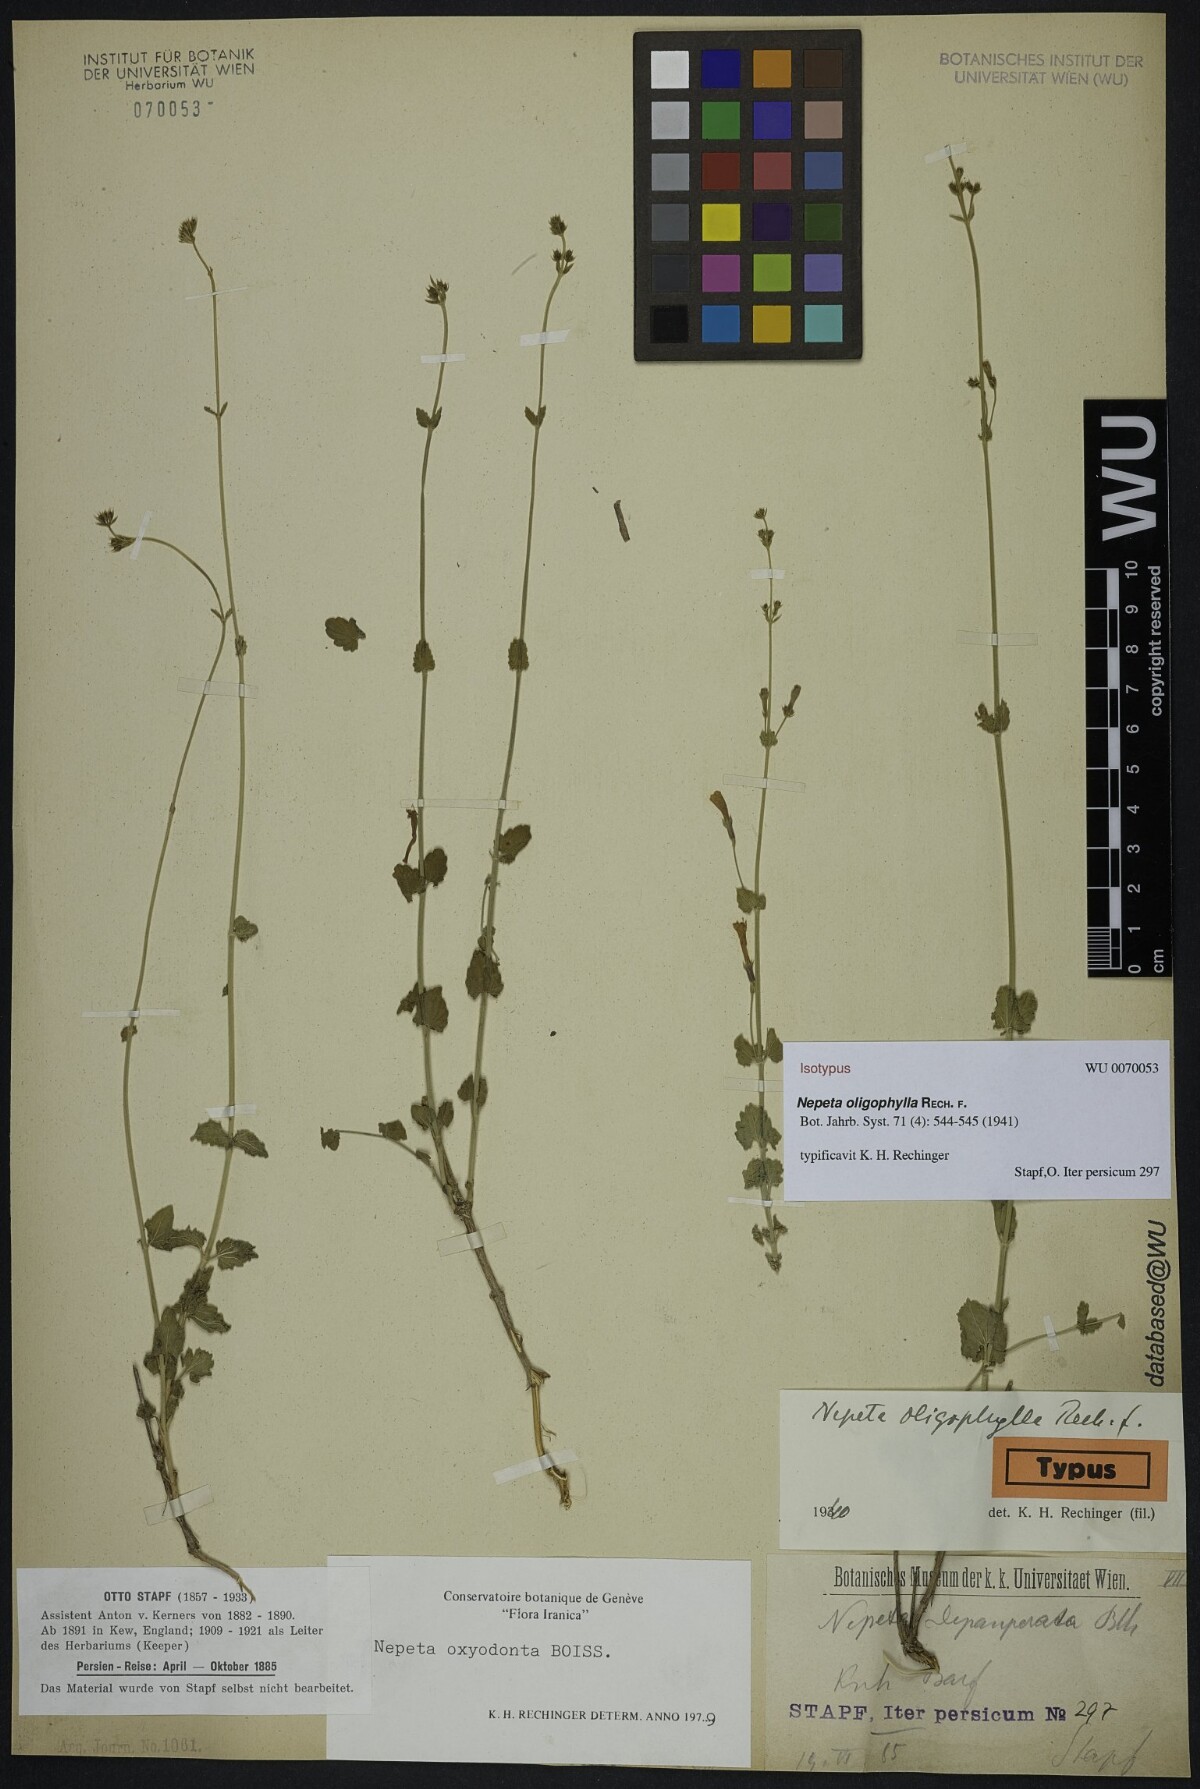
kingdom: Plantae
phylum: Tracheophyta
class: Magnoliopsida
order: Lamiales
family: Lamiaceae
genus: Nepeta
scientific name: Nepeta oxyodonta
